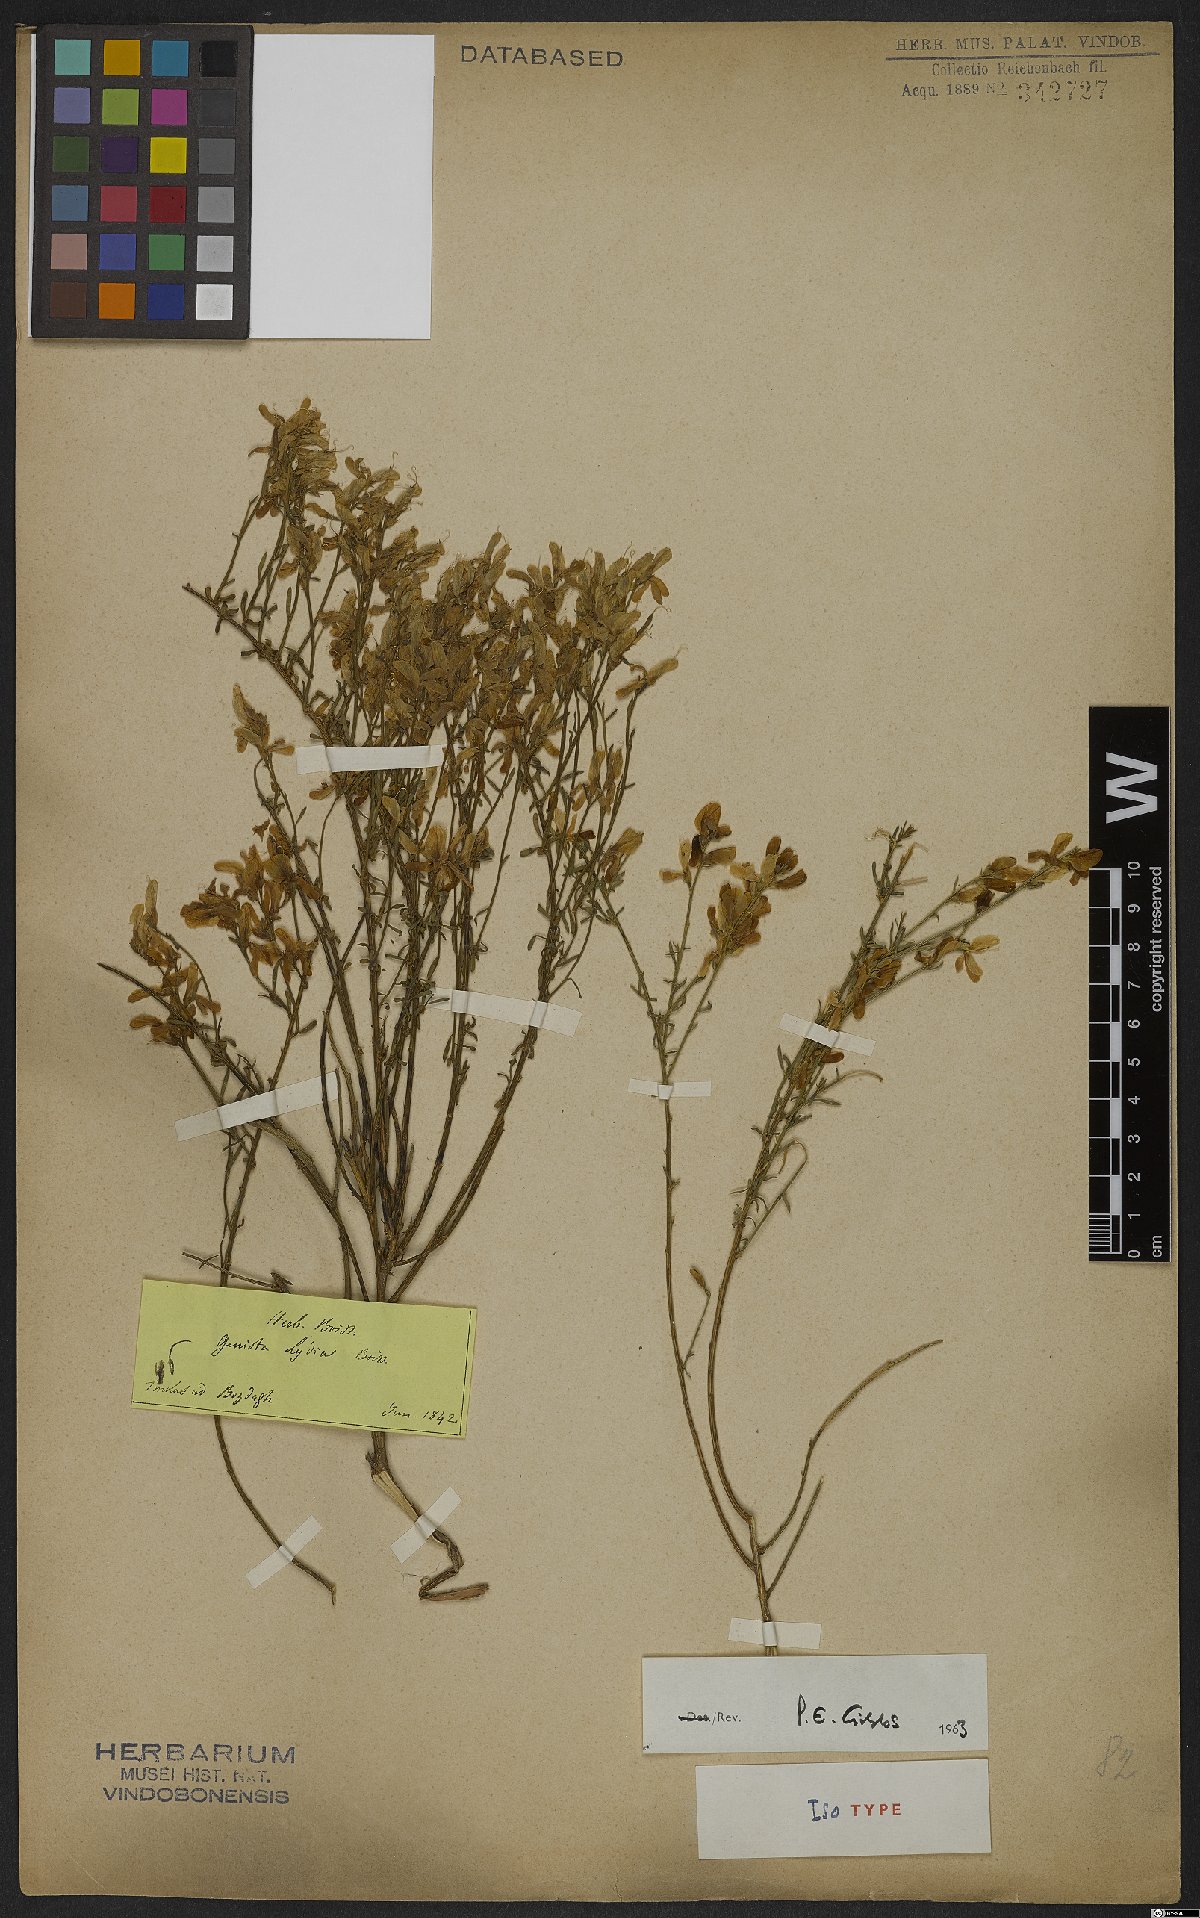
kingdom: Plantae
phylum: Tracheophyta
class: Magnoliopsida
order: Fabales
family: Fabaceae
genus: Genista
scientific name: Genista lydia
